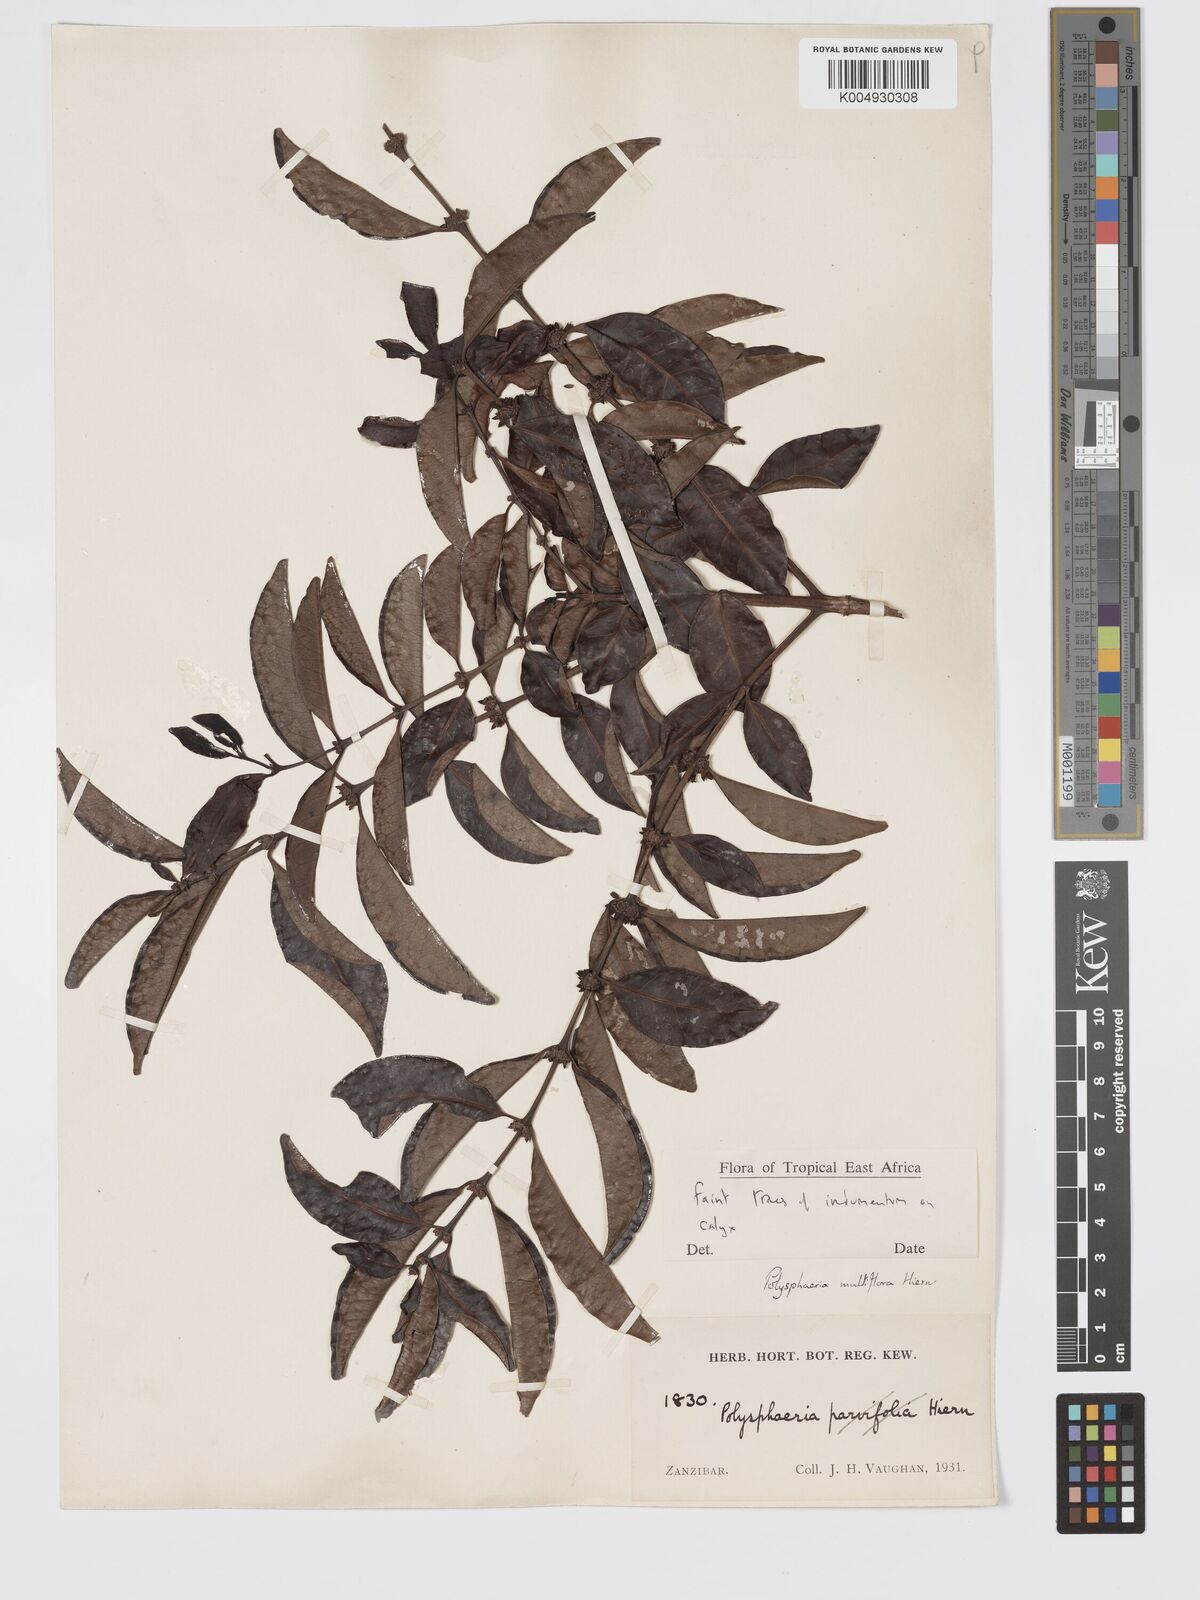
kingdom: Plantae
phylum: Tracheophyta
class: Magnoliopsida
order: Gentianales
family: Rubiaceae
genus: Polysphaeria
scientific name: Polysphaeria multiflora
